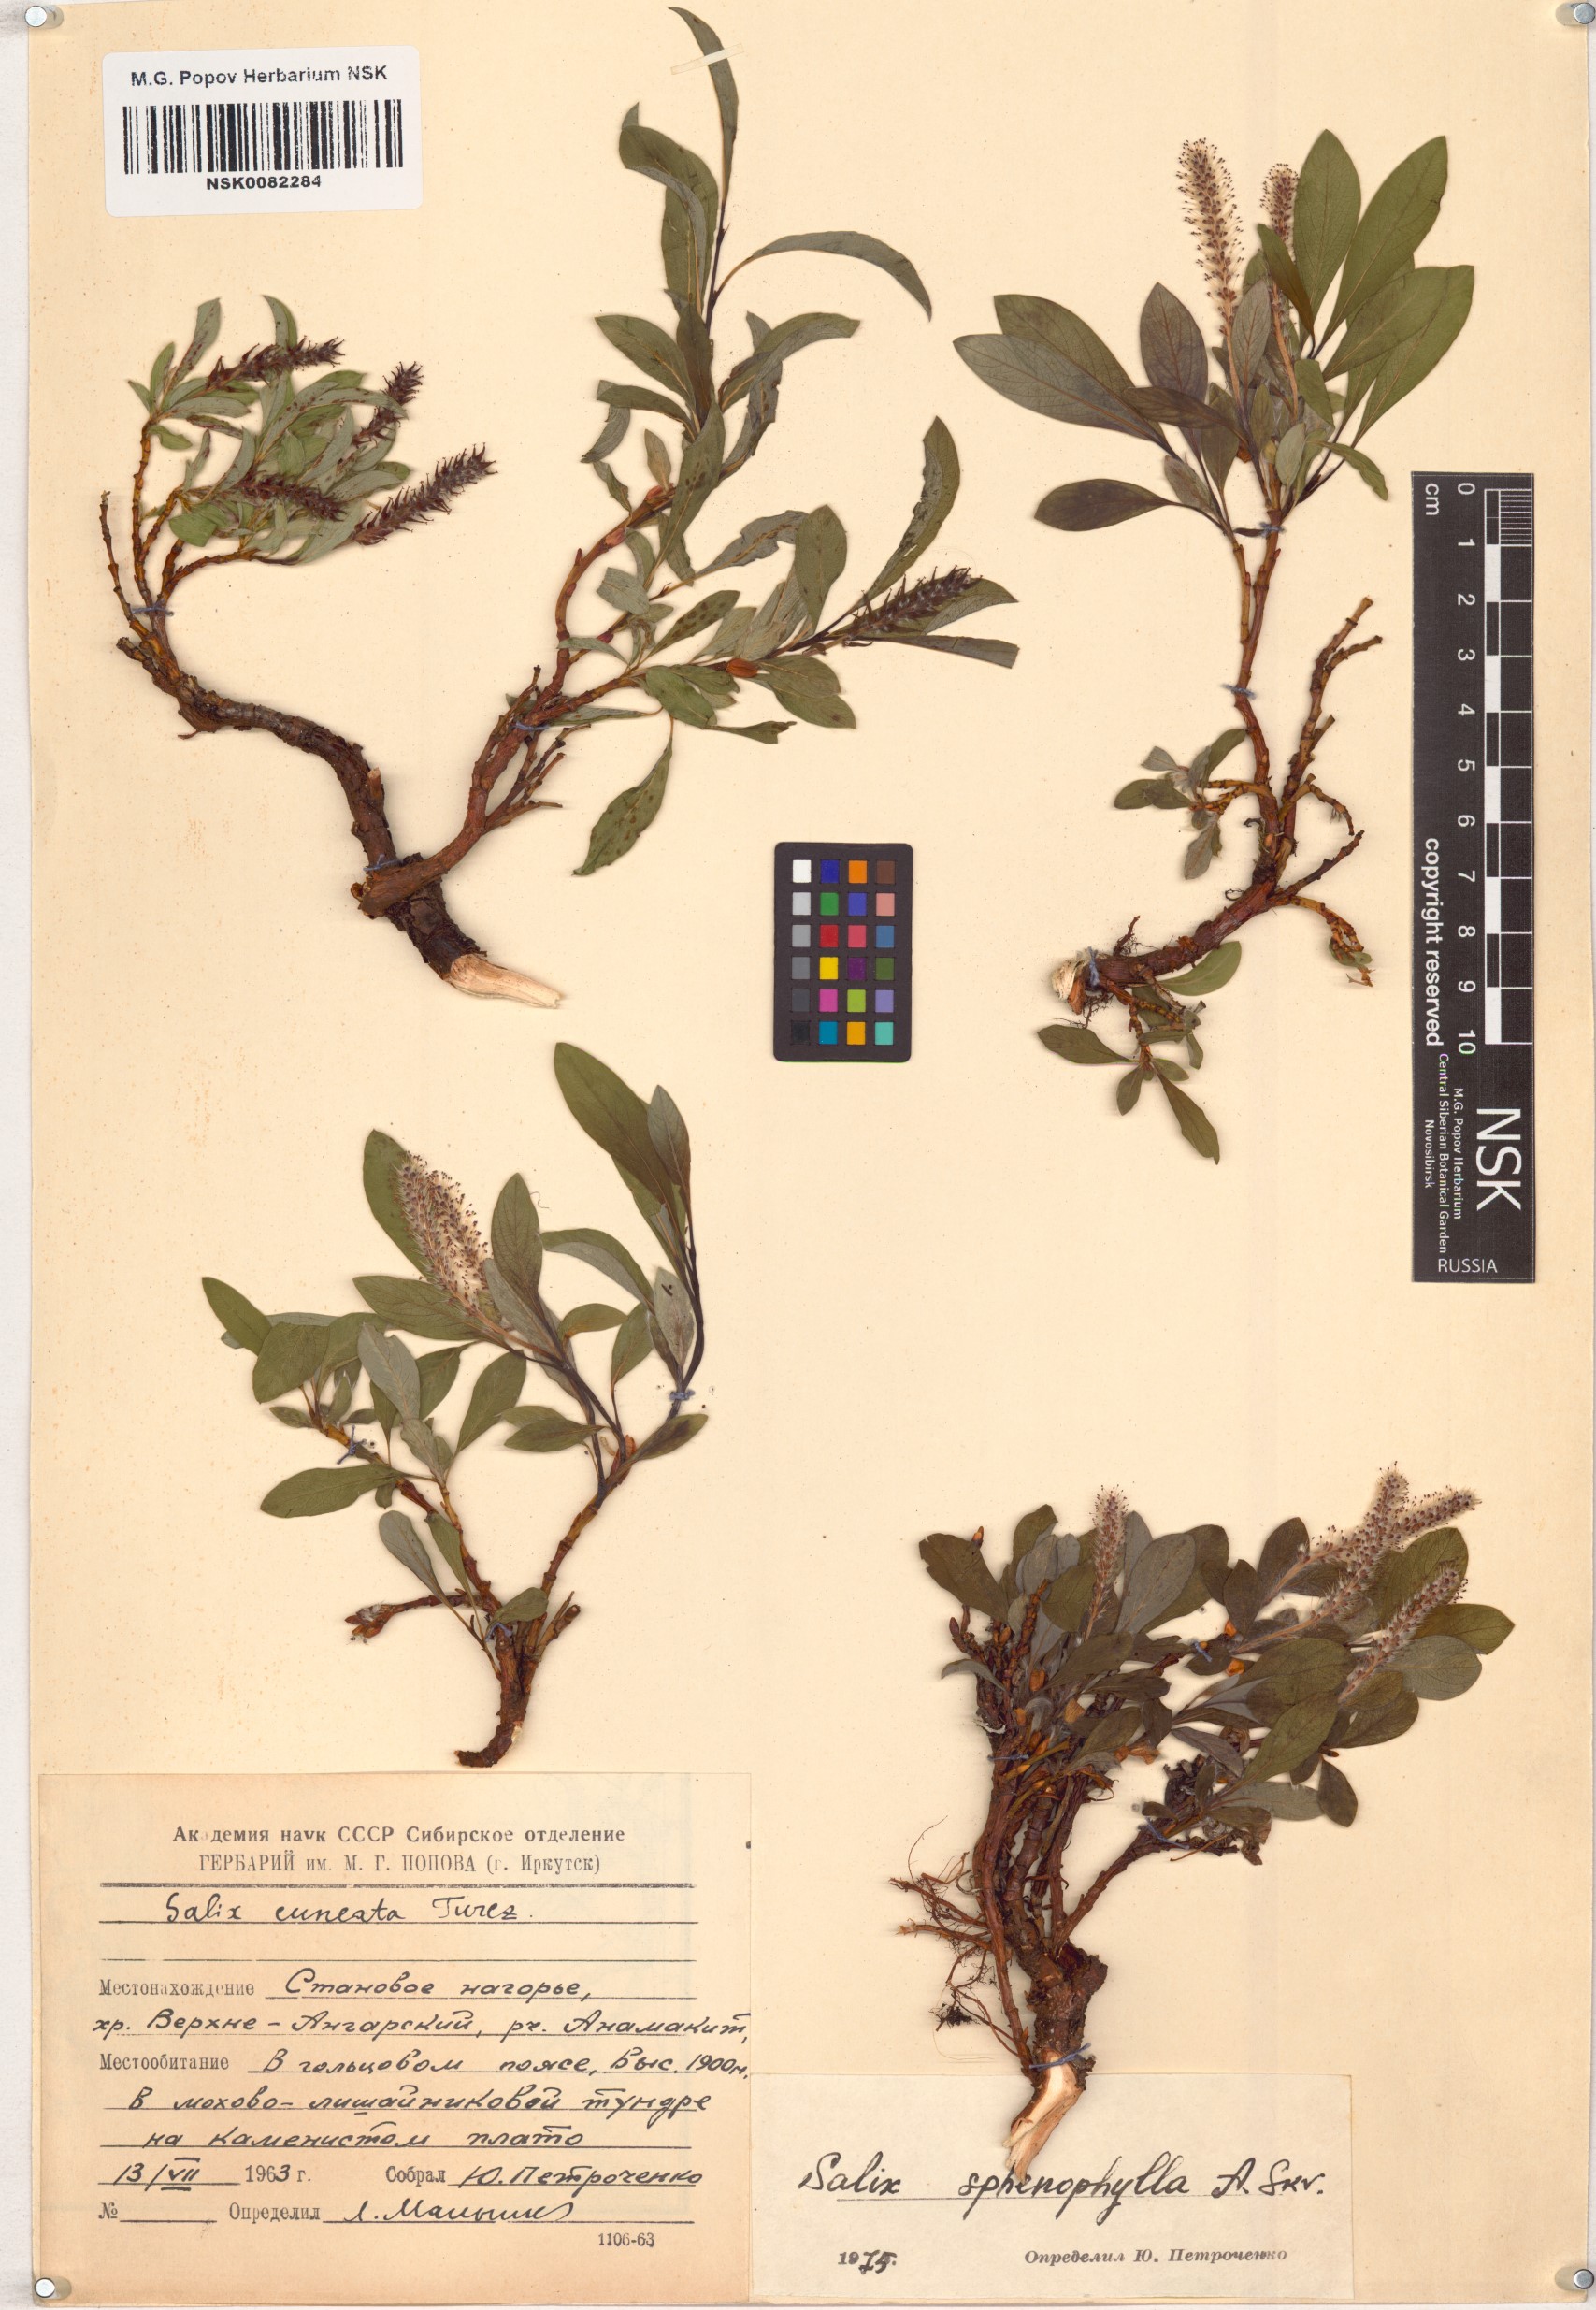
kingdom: Plantae
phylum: Tracheophyta
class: Magnoliopsida
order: Malpighiales
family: Salicaceae
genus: Salix
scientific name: Salix sphenophylla
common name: Wedge-leaved willow
